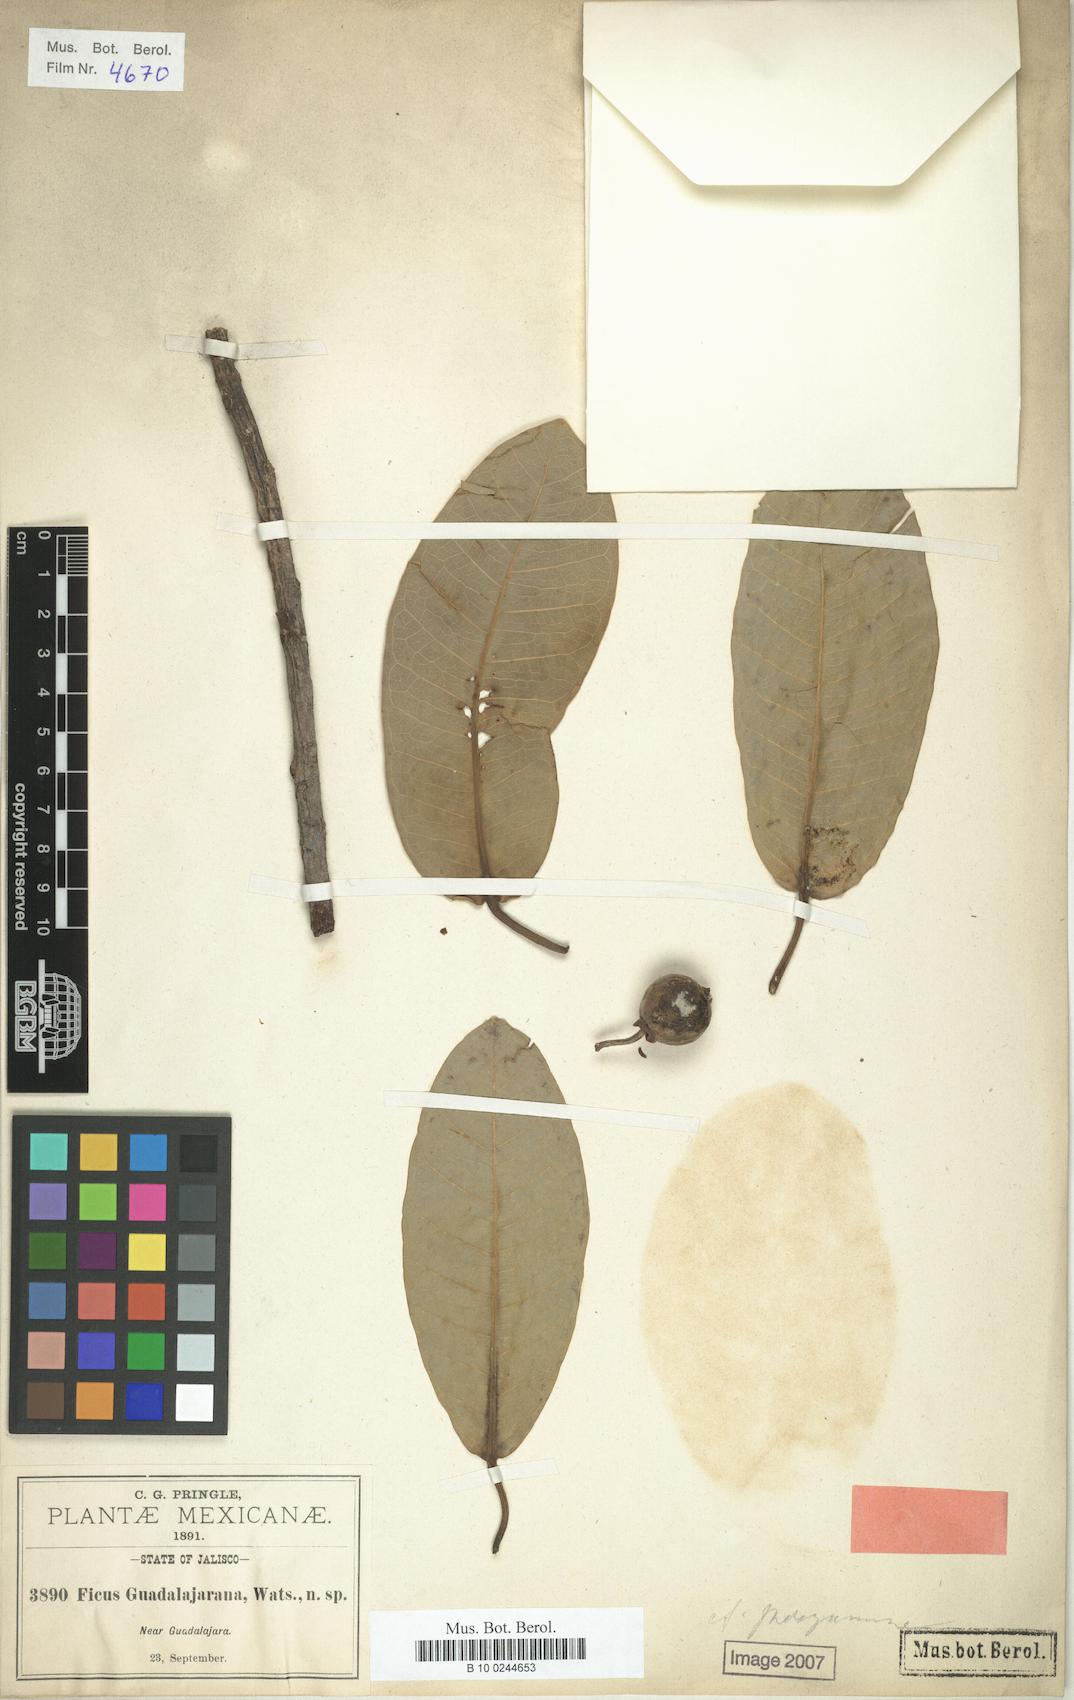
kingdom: Plantae
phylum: Tracheophyta
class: Magnoliopsida
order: Rosales
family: Moraceae
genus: Ficus
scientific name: Ficus maxima
